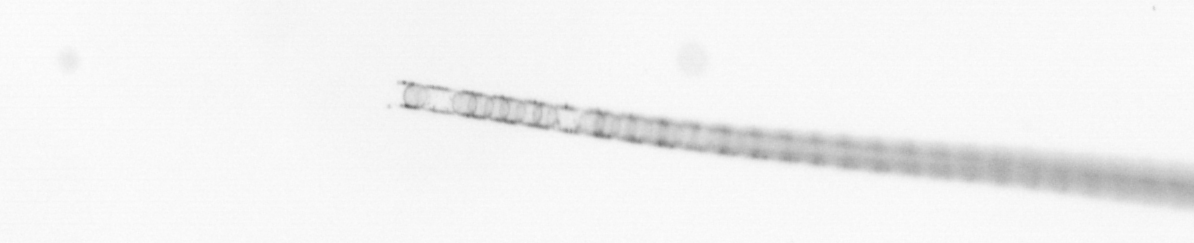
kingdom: Chromista
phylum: Ochrophyta
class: Bacillariophyceae
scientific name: Bacillariophyceae
